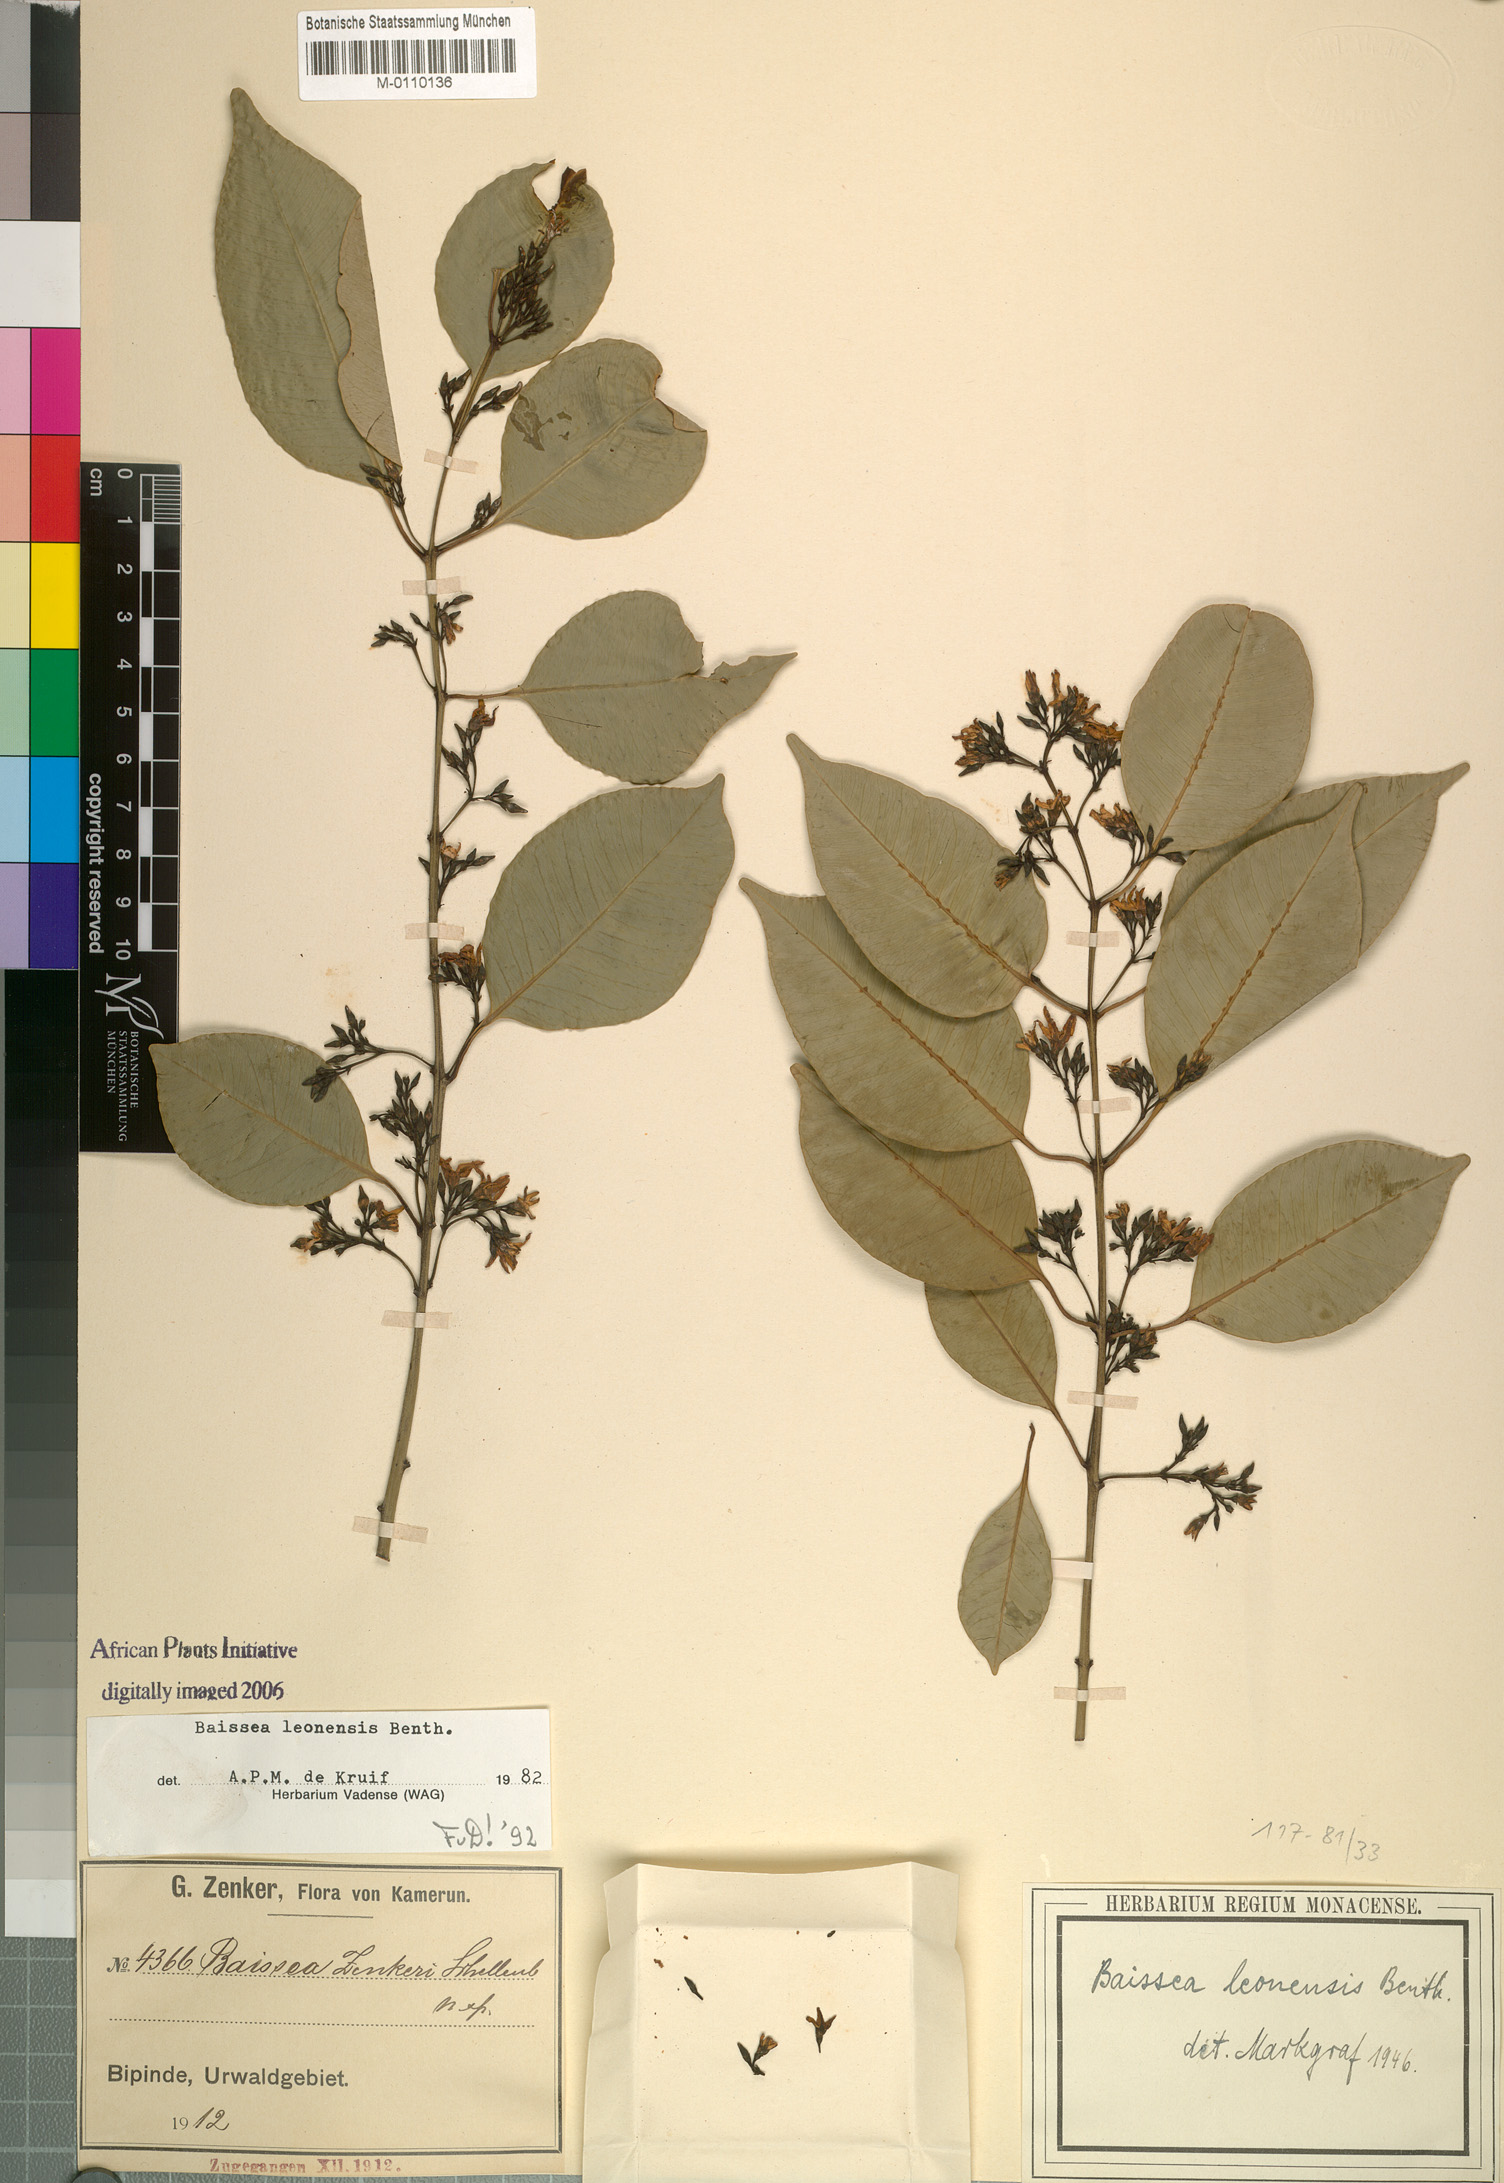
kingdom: Plantae
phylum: Tracheophyta
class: Magnoliopsida
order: Gentianales
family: Apocynaceae
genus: Baissea
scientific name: Baissea leonensis
